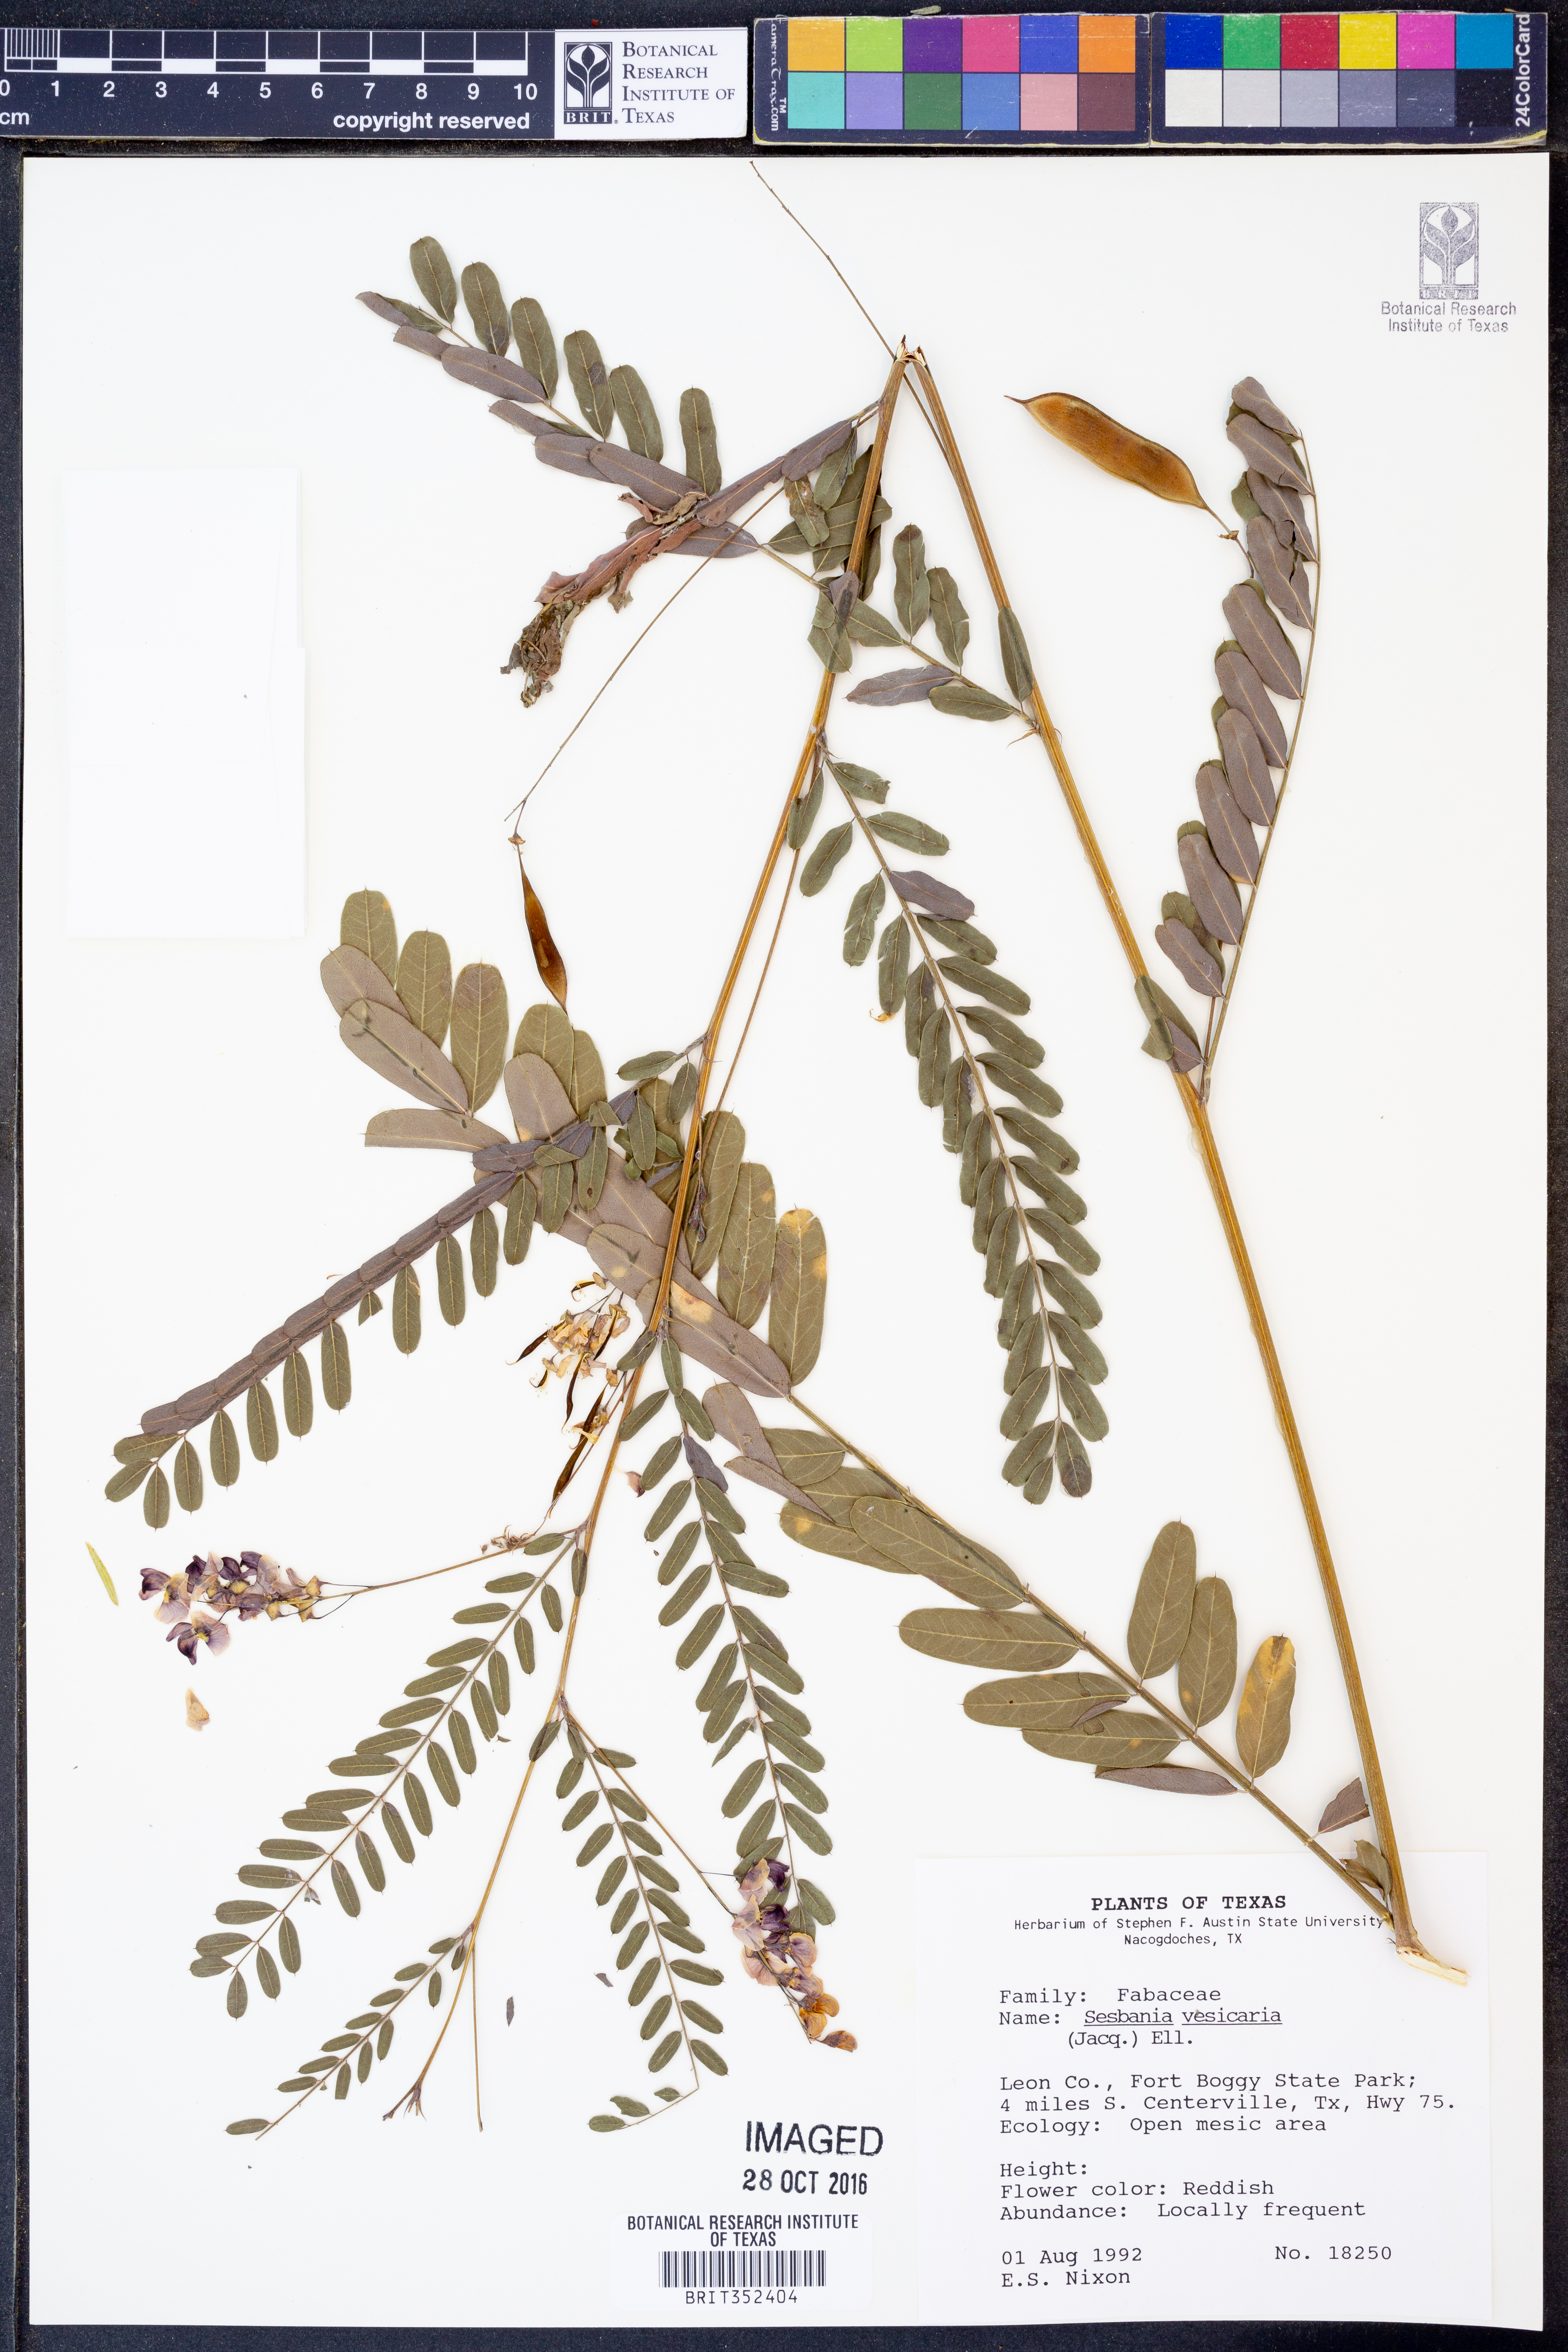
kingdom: Plantae
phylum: Tracheophyta
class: Magnoliopsida
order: Fabales
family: Fabaceae
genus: Sesbania
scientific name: Sesbania vesicaria
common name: Bagpod
